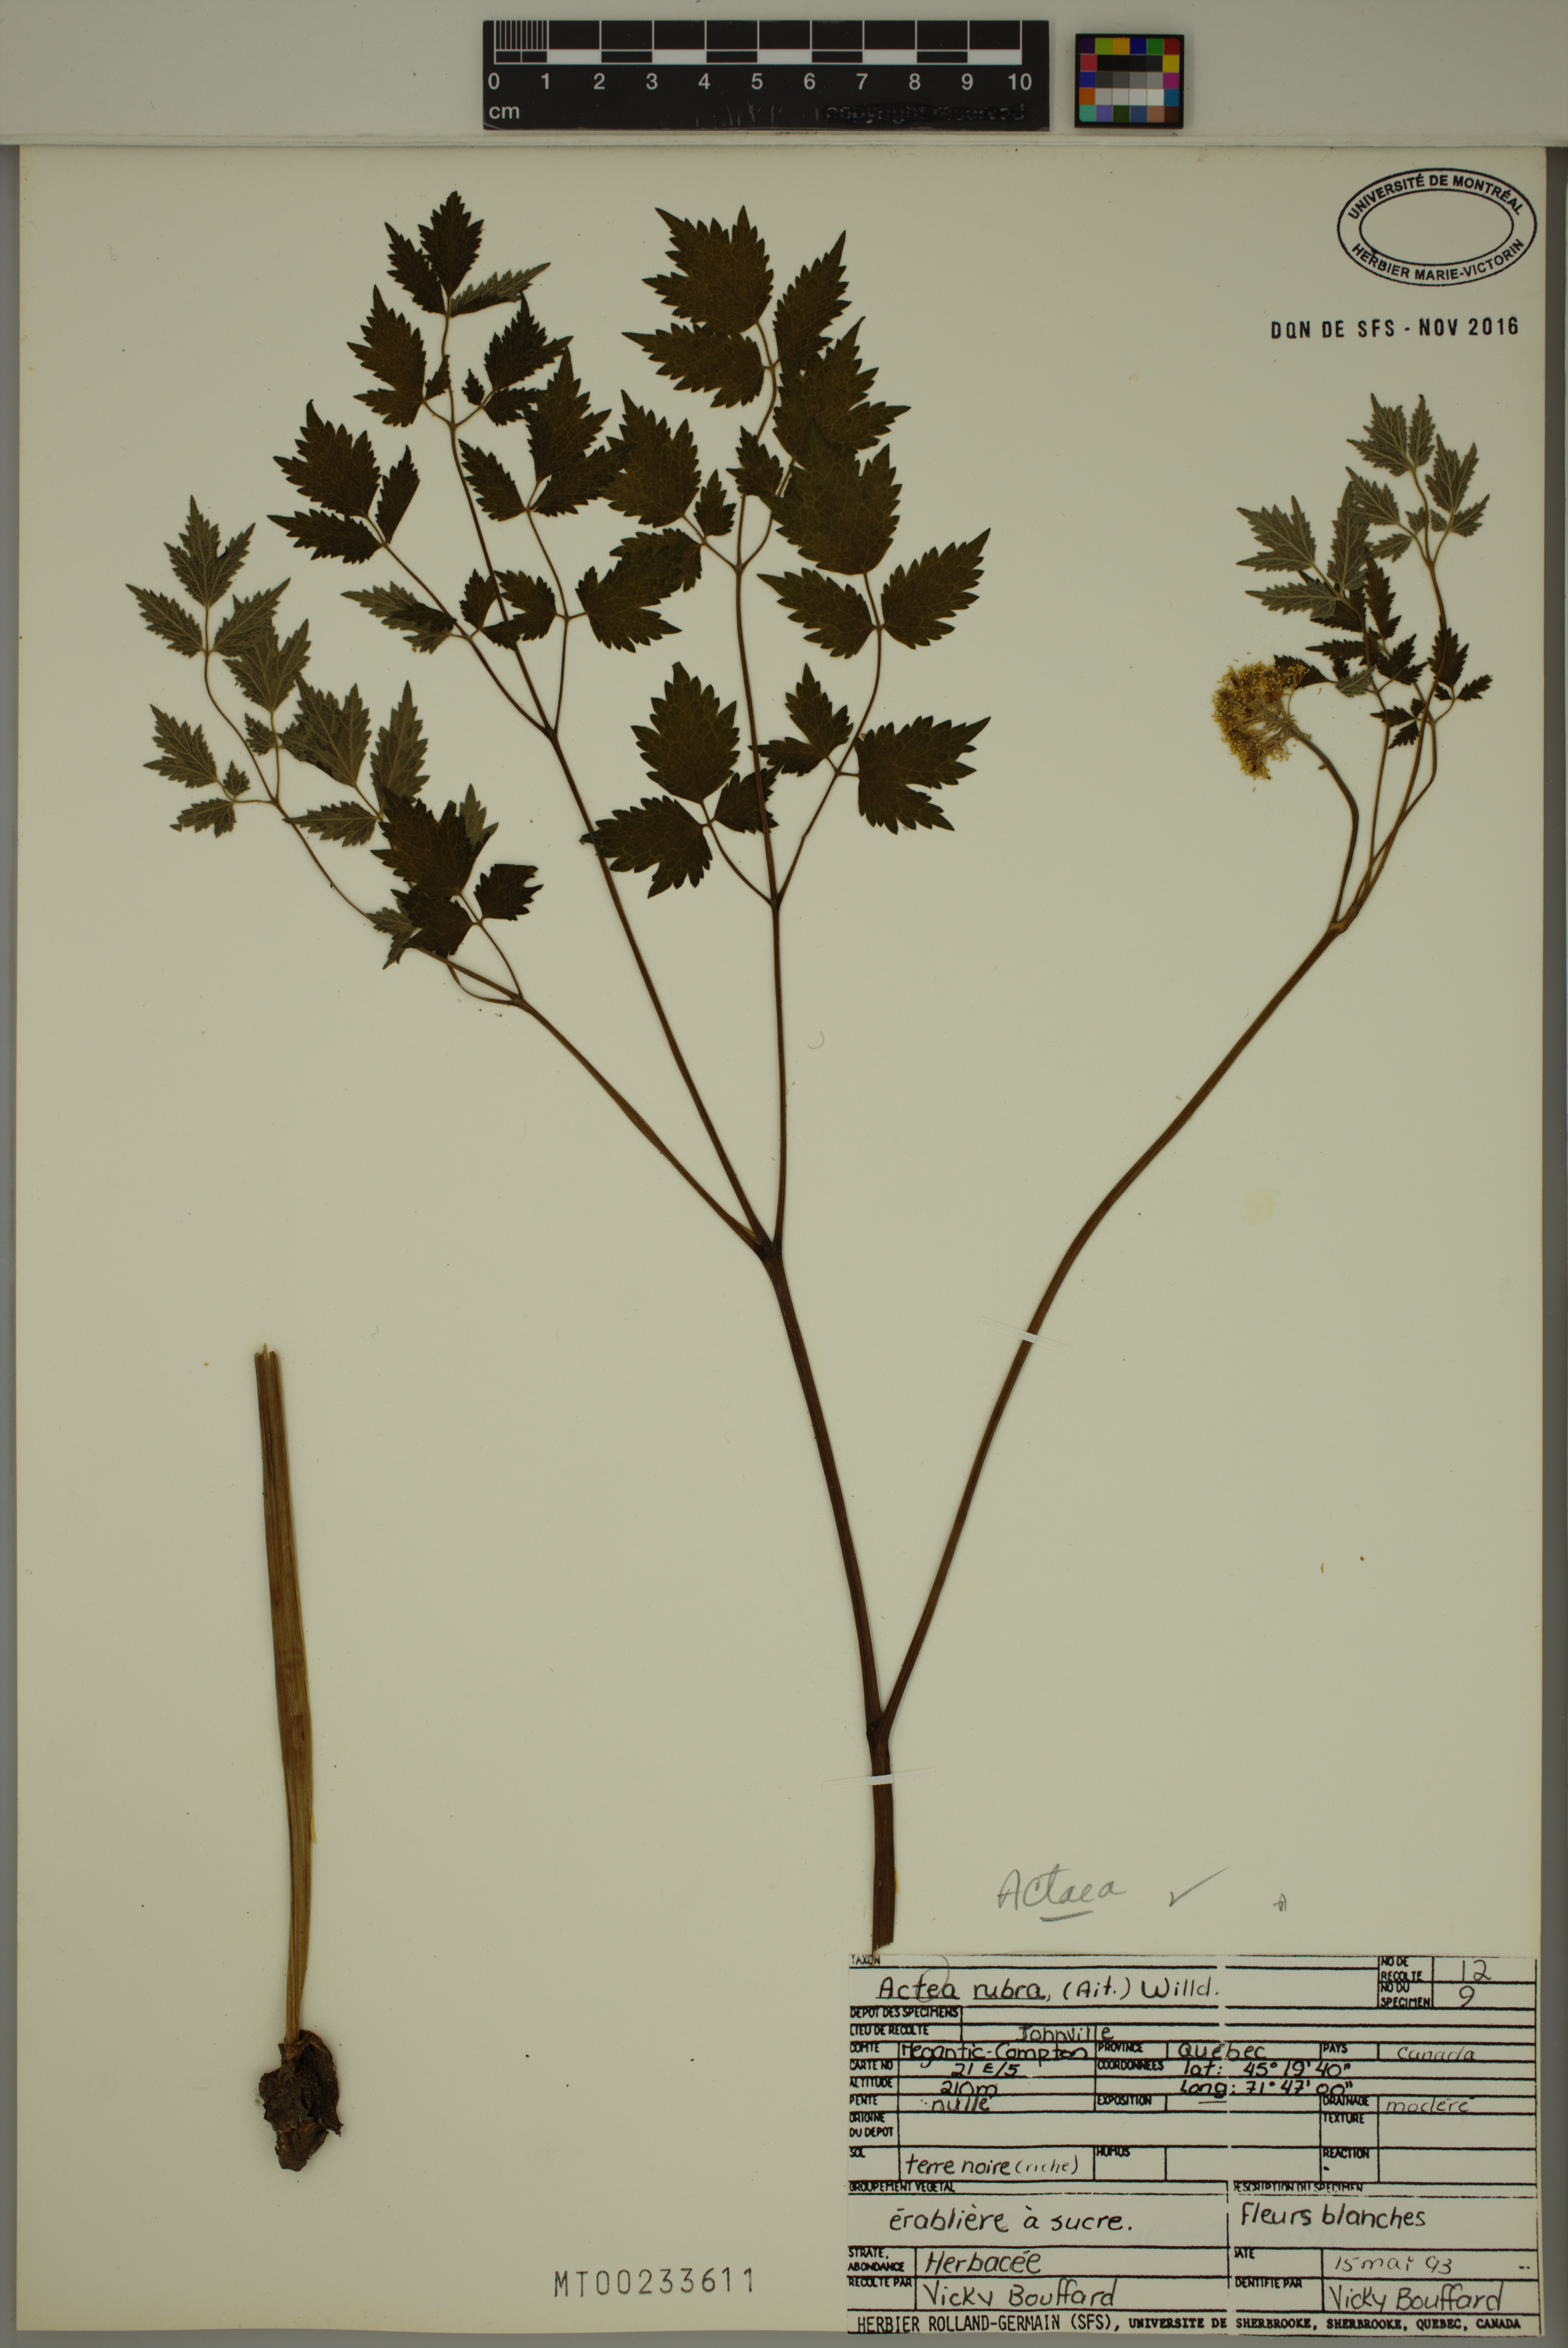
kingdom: Plantae
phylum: Tracheophyta
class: Magnoliopsida
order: Ranunculales
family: Ranunculaceae
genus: Actaea
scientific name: Actaea rubra
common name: Red baneberry
